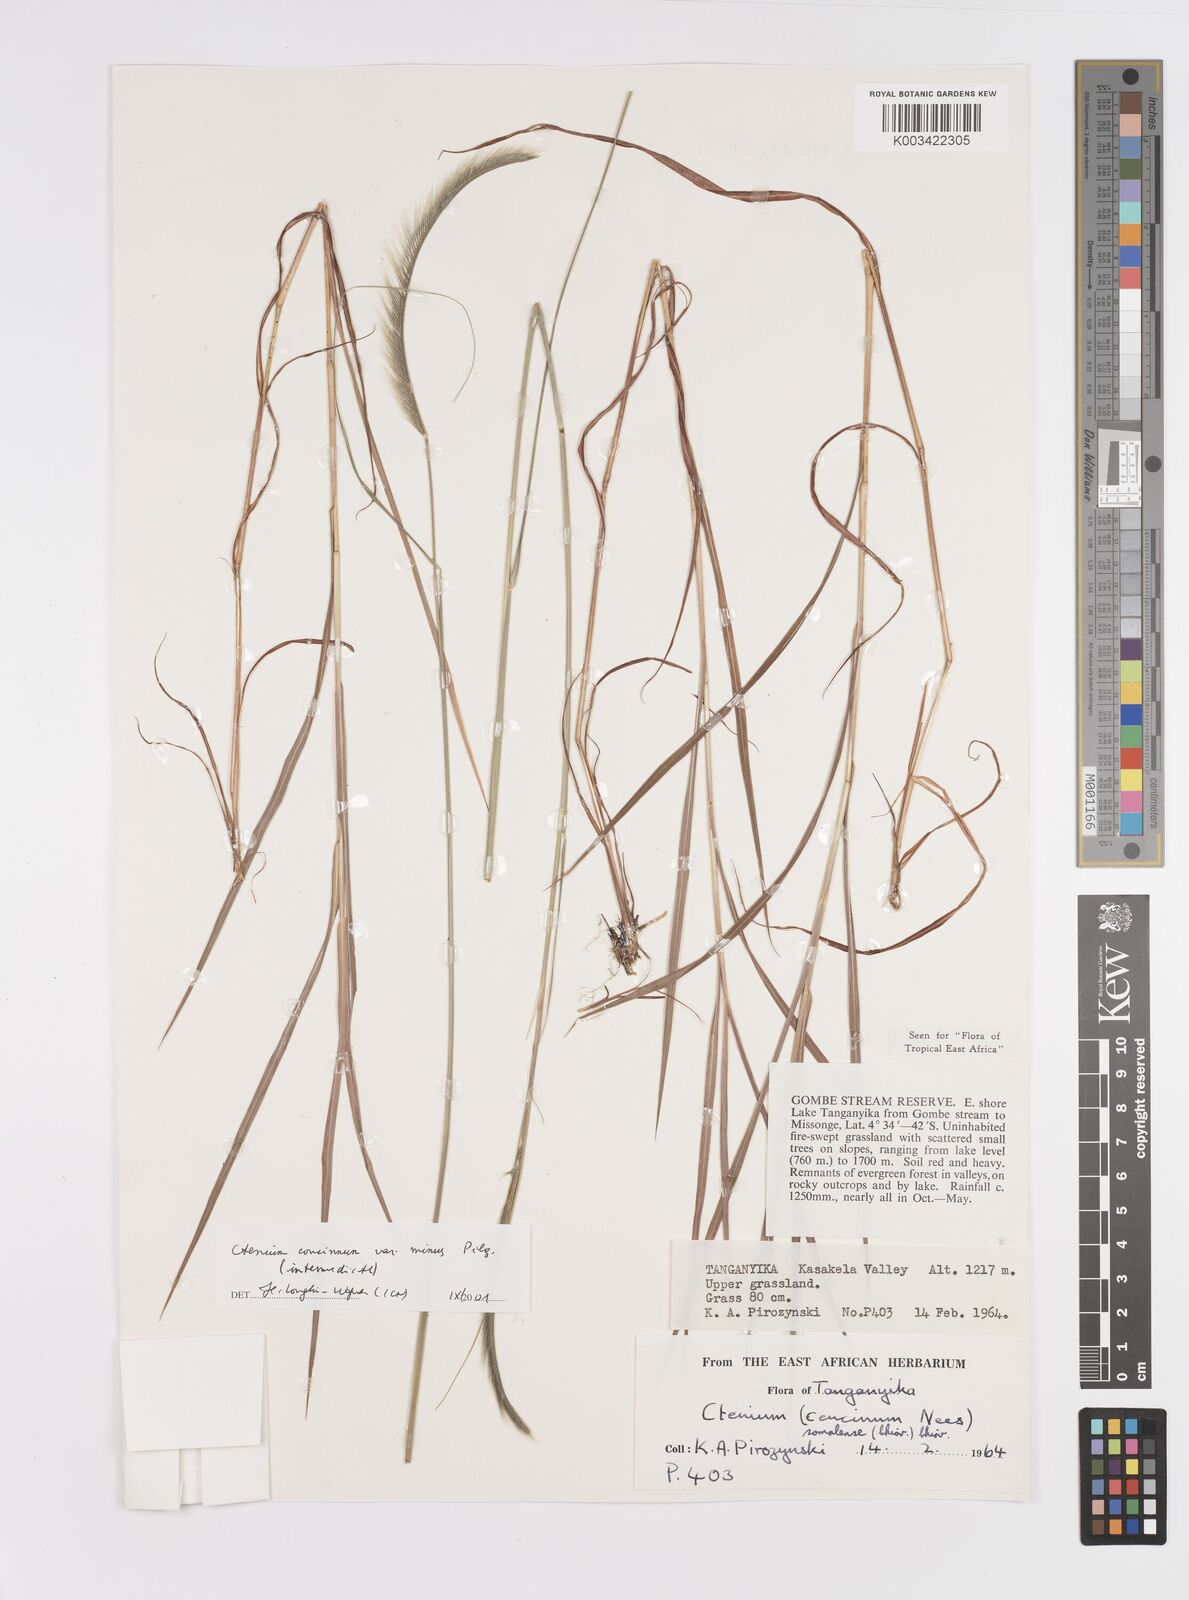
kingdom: Plantae
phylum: Tracheophyta
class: Liliopsida
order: Poales
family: Poaceae
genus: Ctenium
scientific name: Ctenium concinnum
